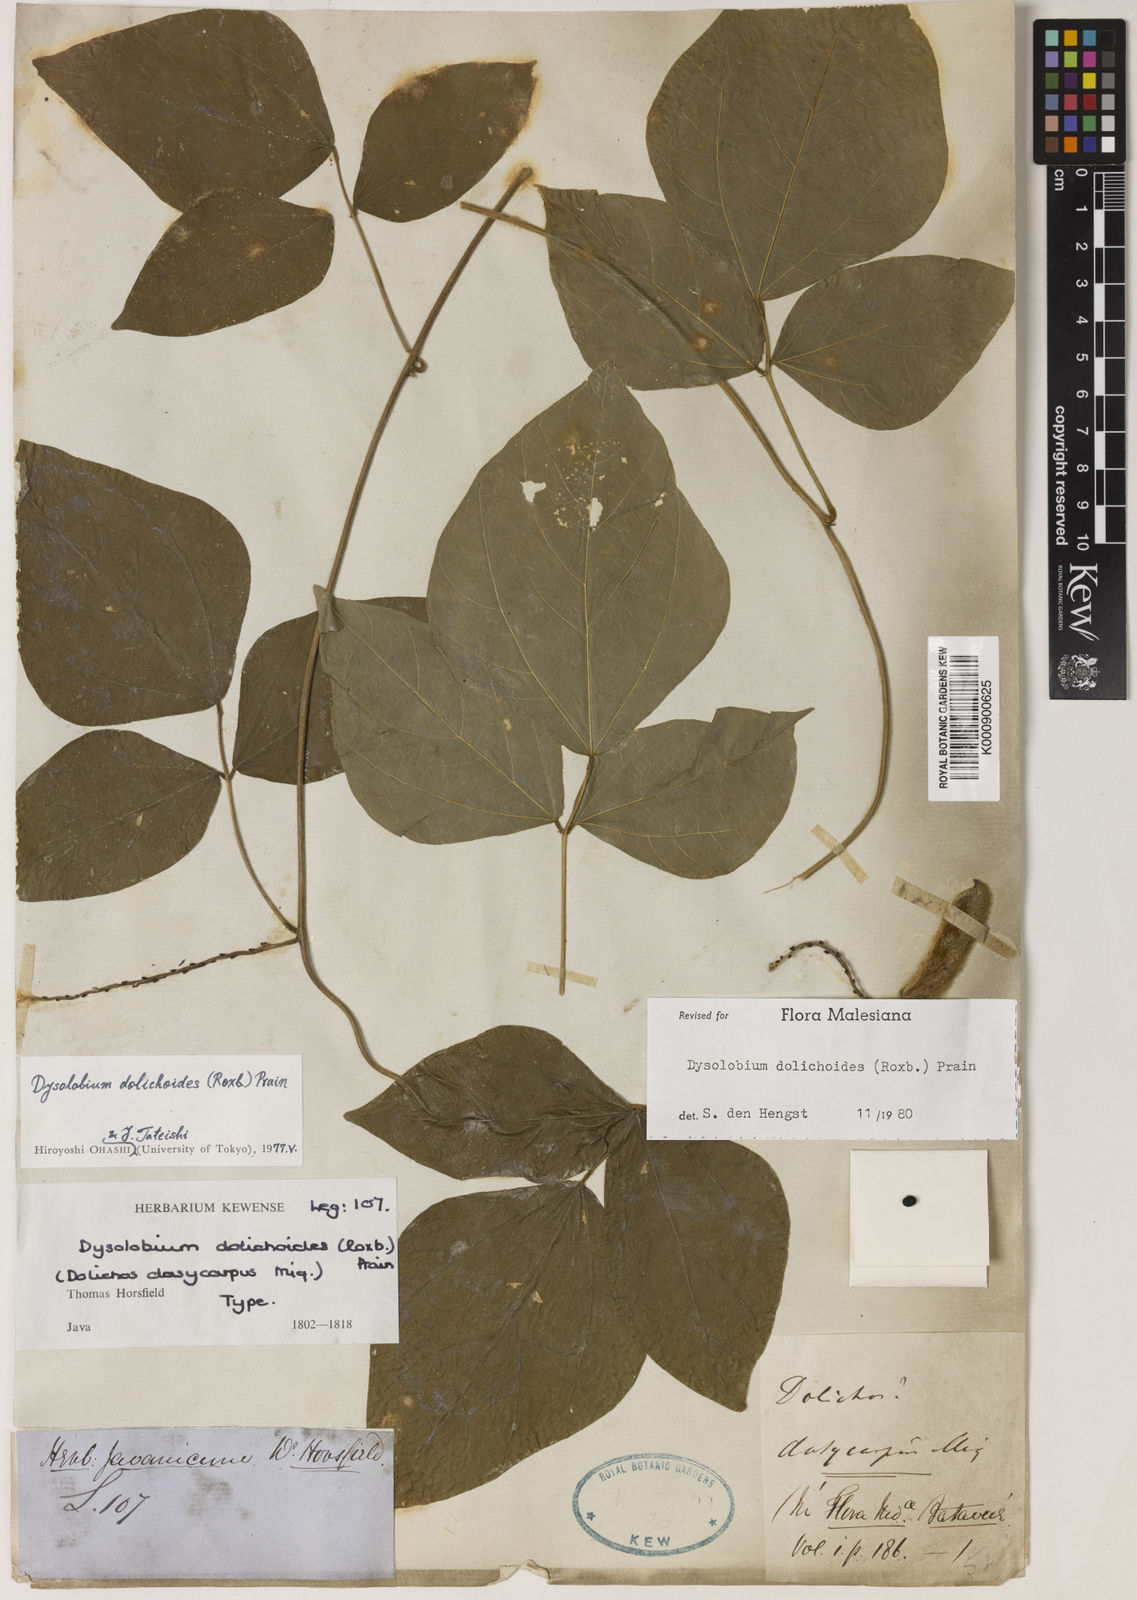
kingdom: Plantae
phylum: Tracheophyta
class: Magnoliopsida
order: Fabales
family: Fabaceae
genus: Dysolobium
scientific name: Dysolobium dolichoides
